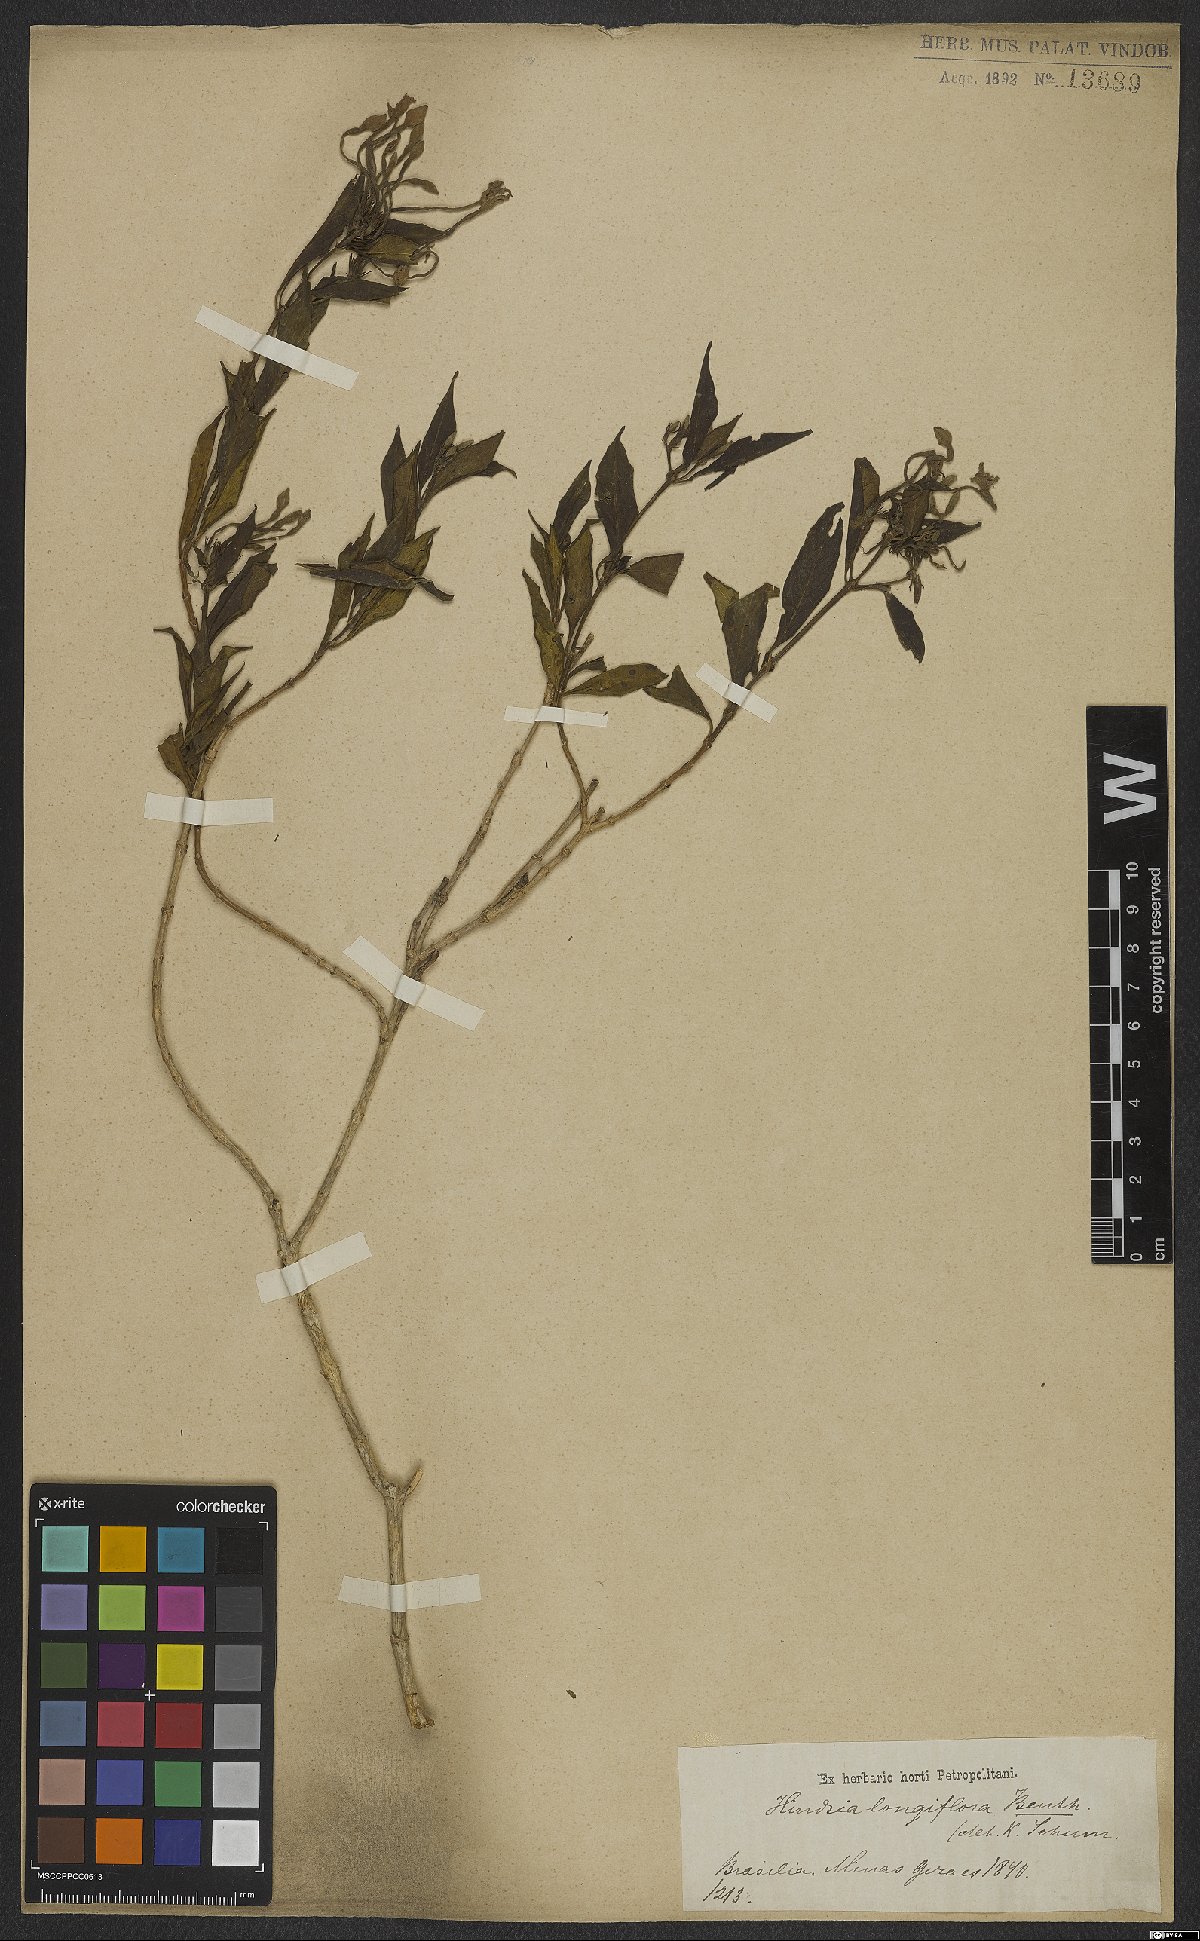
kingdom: Plantae
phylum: Tracheophyta
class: Magnoliopsida
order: Gentianales
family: Rubiaceae
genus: Hindsia
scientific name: Hindsia longiflora
